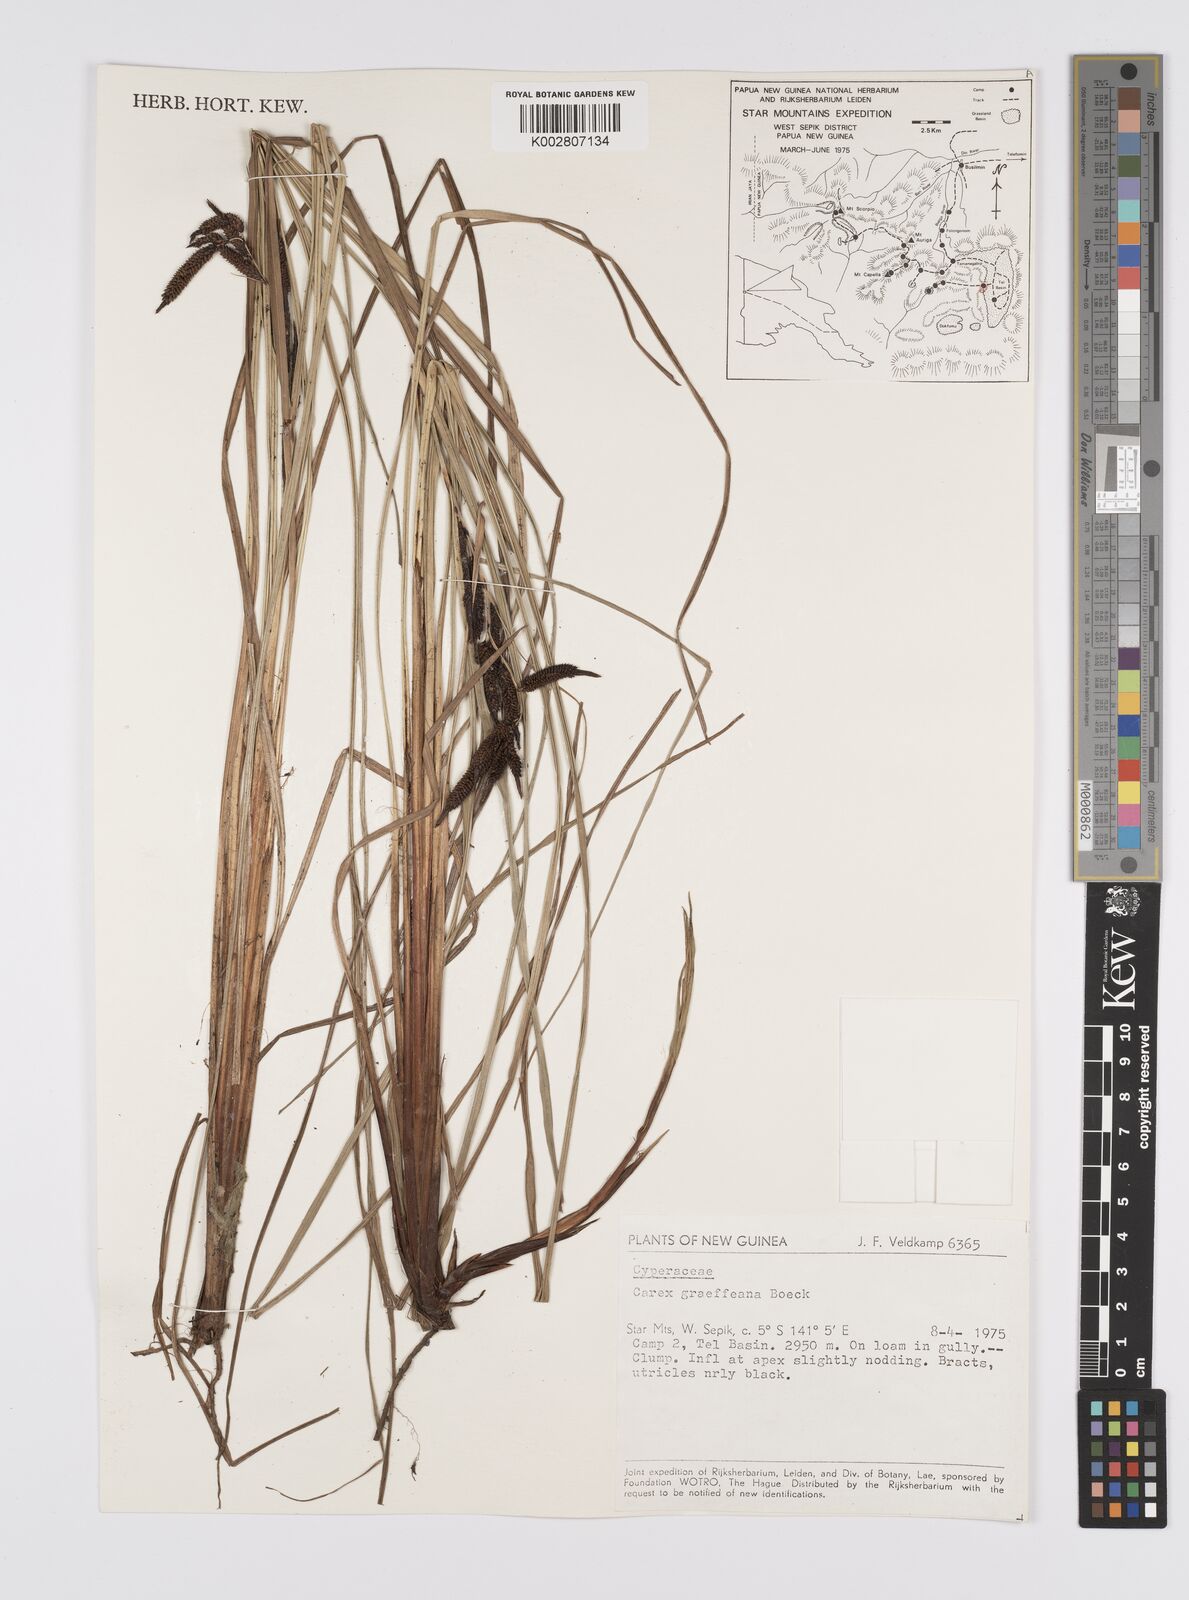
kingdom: Plantae
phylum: Tracheophyta
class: Liliopsida
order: Poales
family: Cyperaceae
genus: Carex
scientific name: Carex graeffeana
